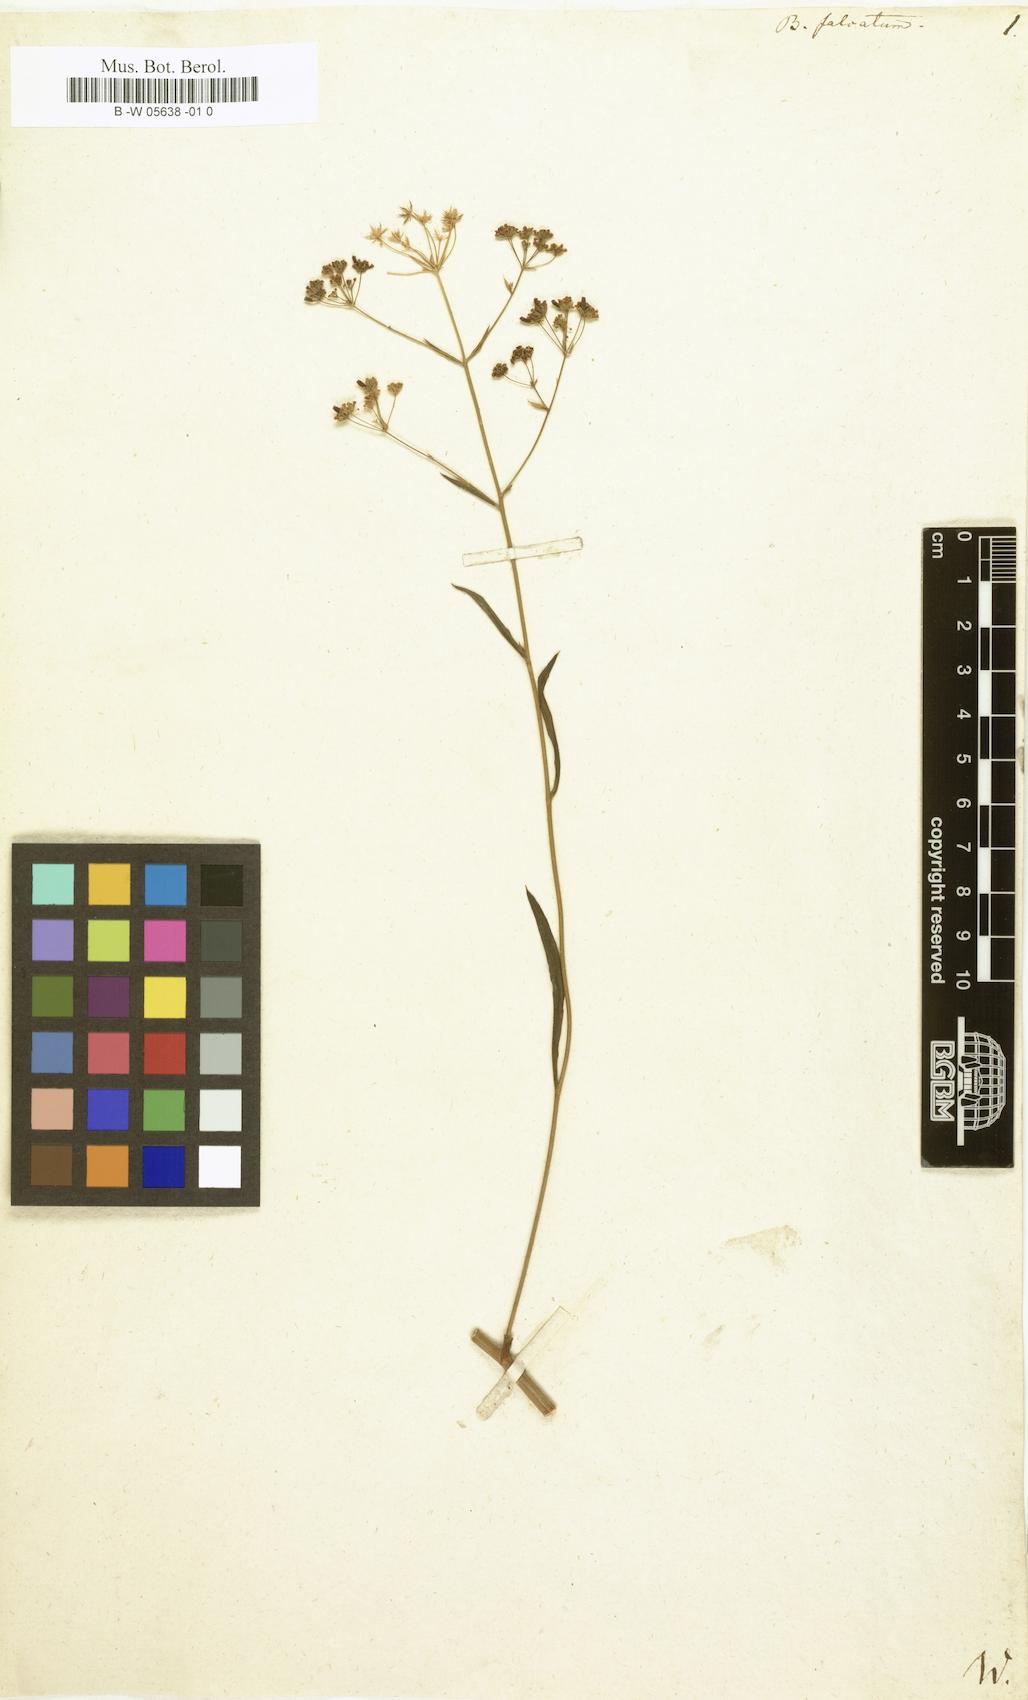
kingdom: Plantae
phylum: Tracheophyta
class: Magnoliopsida
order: Apiales
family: Apiaceae
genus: Bupleurum
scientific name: Bupleurum falcatum
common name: Sickle-leaved hare's-ear
